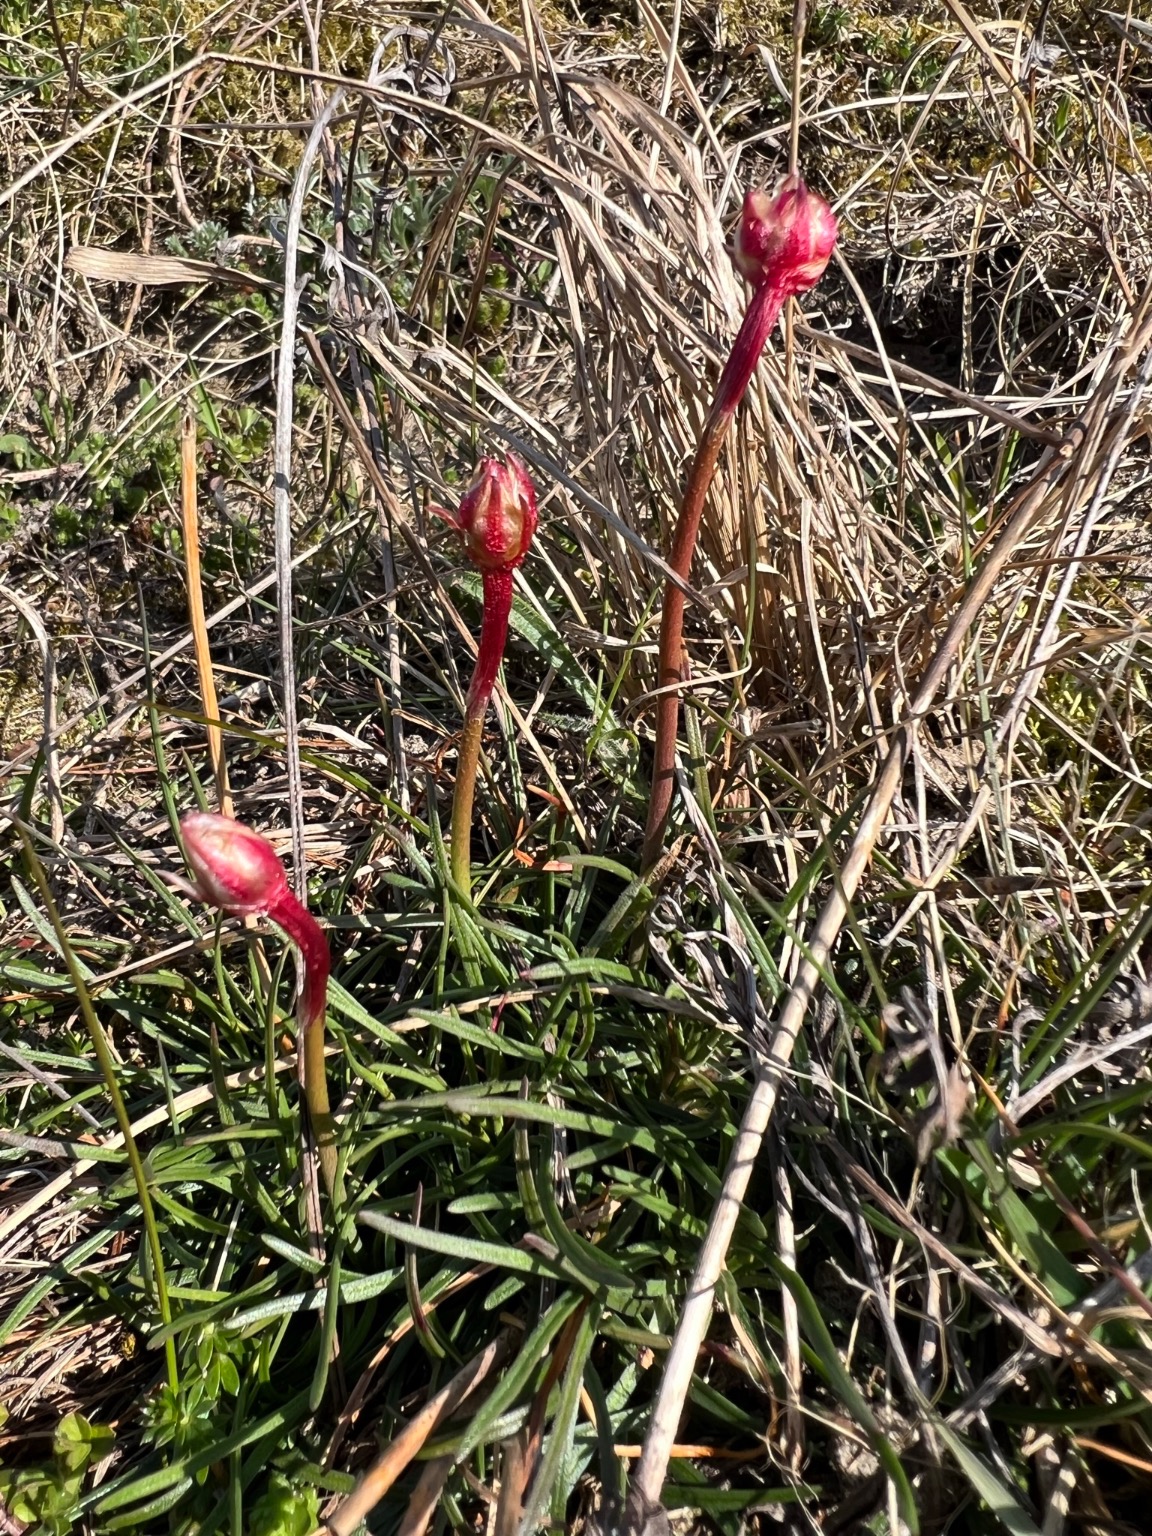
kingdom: Plantae
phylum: Tracheophyta
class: Magnoliopsida
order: Caryophyllales
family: Plumbaginaceae
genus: Armeria
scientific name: Armeria maritima
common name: Engelskgræs
